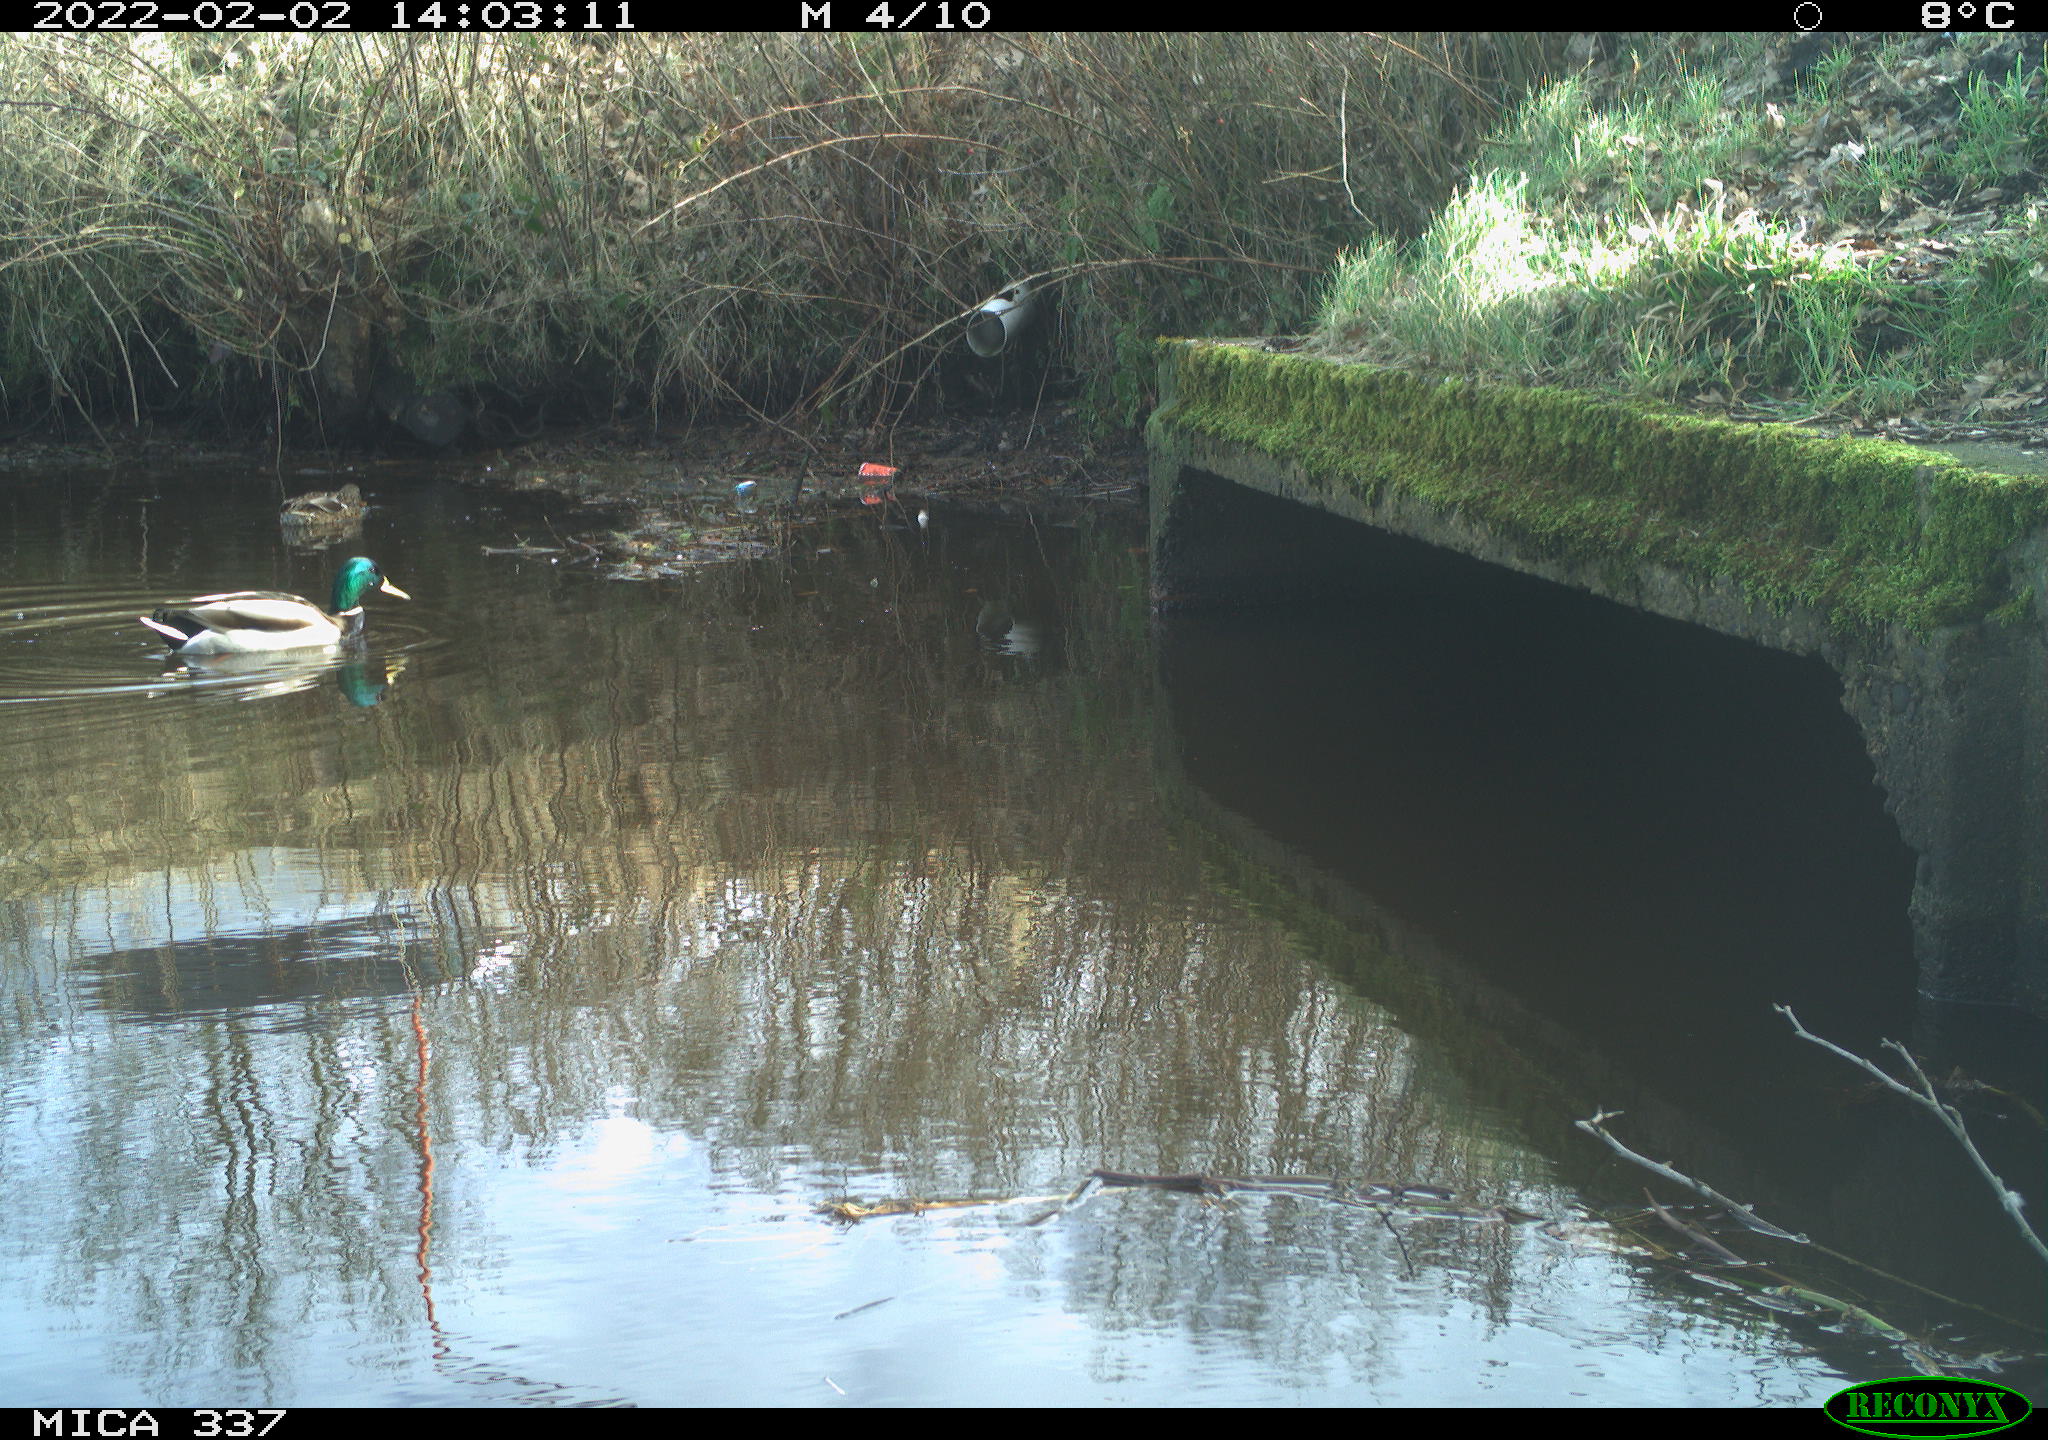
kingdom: Animalia
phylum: Chordata
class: Aves
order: Anseriformes
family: Anatidae
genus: Anas
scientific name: Anas platyrhynchos
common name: Mallard
